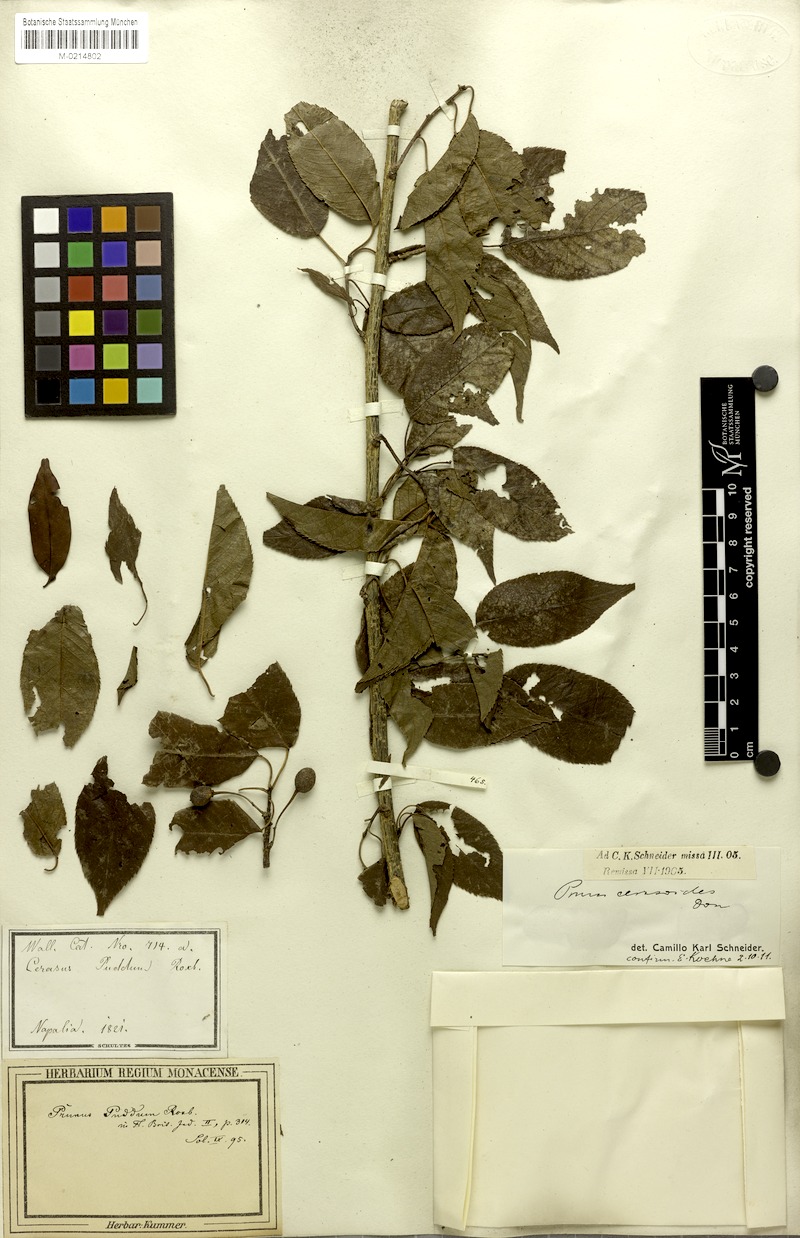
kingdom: Plantae
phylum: Tracheophyta
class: Magnoliopsida
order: Rosales
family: Rosaceae
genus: Prunus
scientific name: Prunus cerasoides
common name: Wild himalayan cherry
